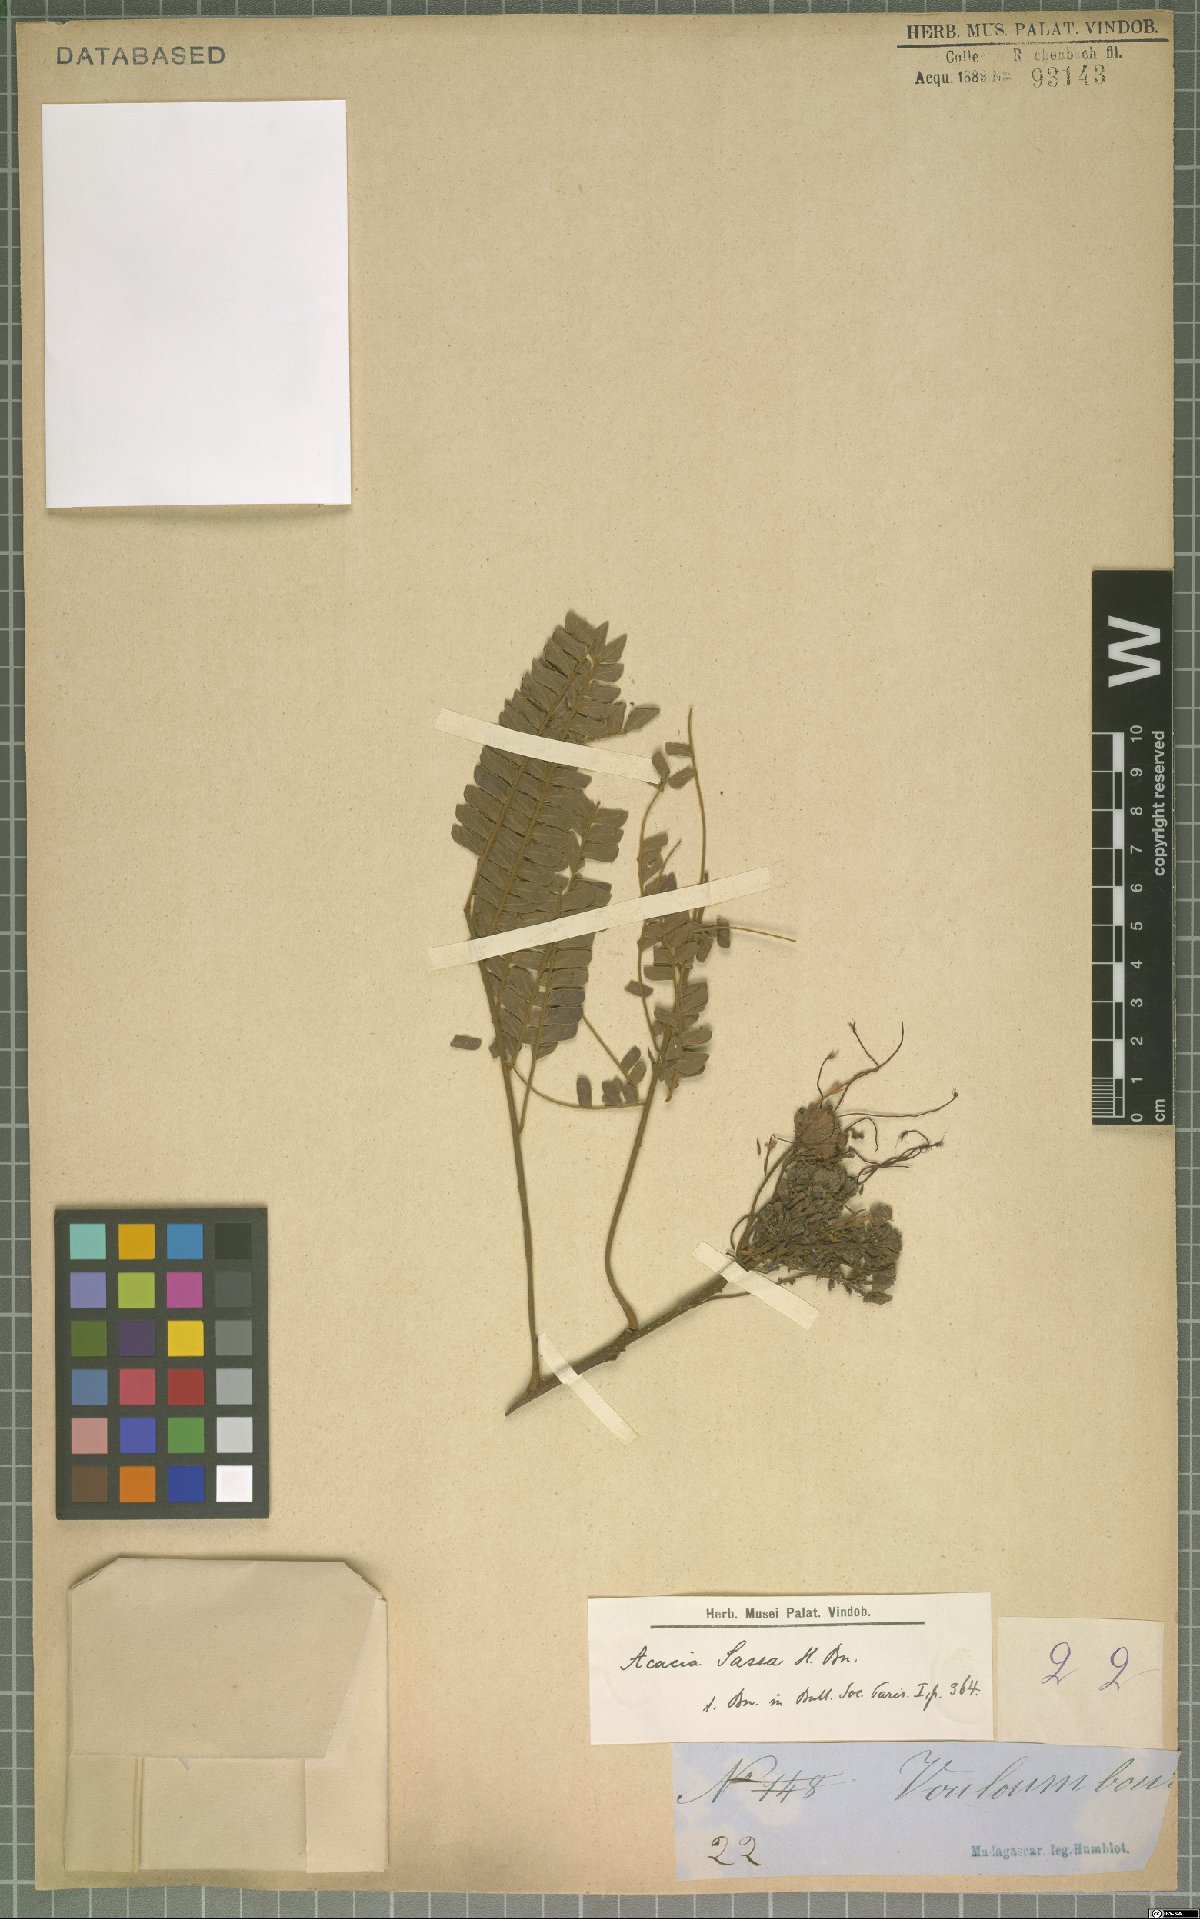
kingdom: Plantae
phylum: Tracheophyta
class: Magnoliopsida
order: Fabales
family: Fabaceae
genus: Acacia
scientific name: Acacia sassa
